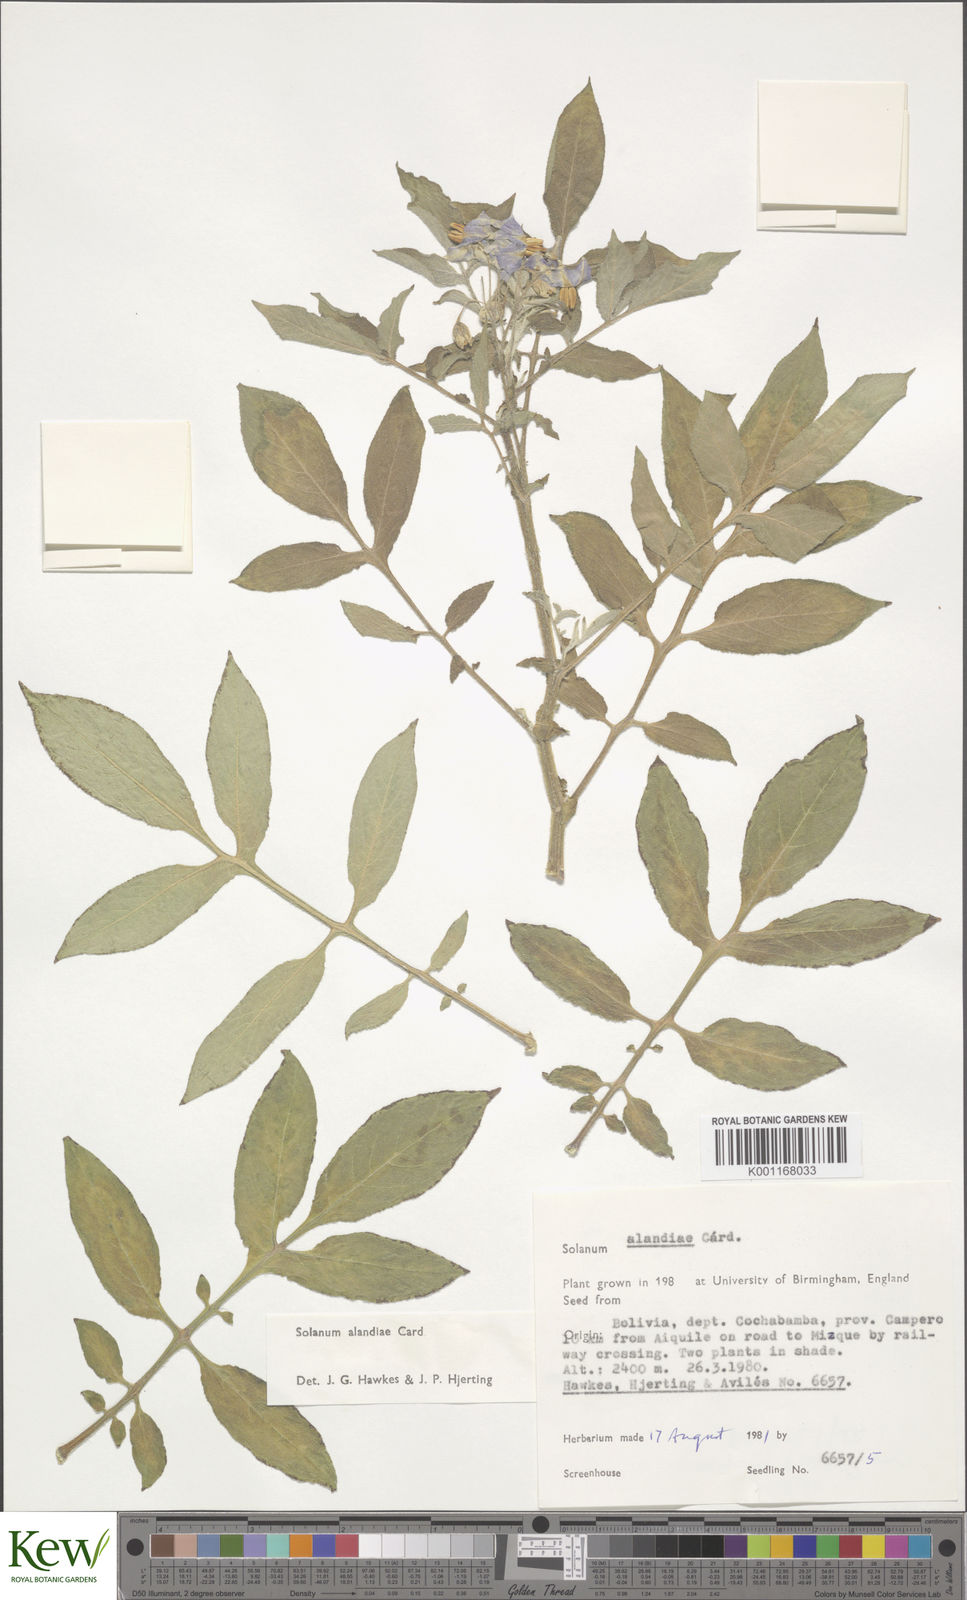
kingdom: Plantae
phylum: Tracheophyta
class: Magnoliopsida
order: Solanales
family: Solanaceae
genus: Solanum
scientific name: Solanum
